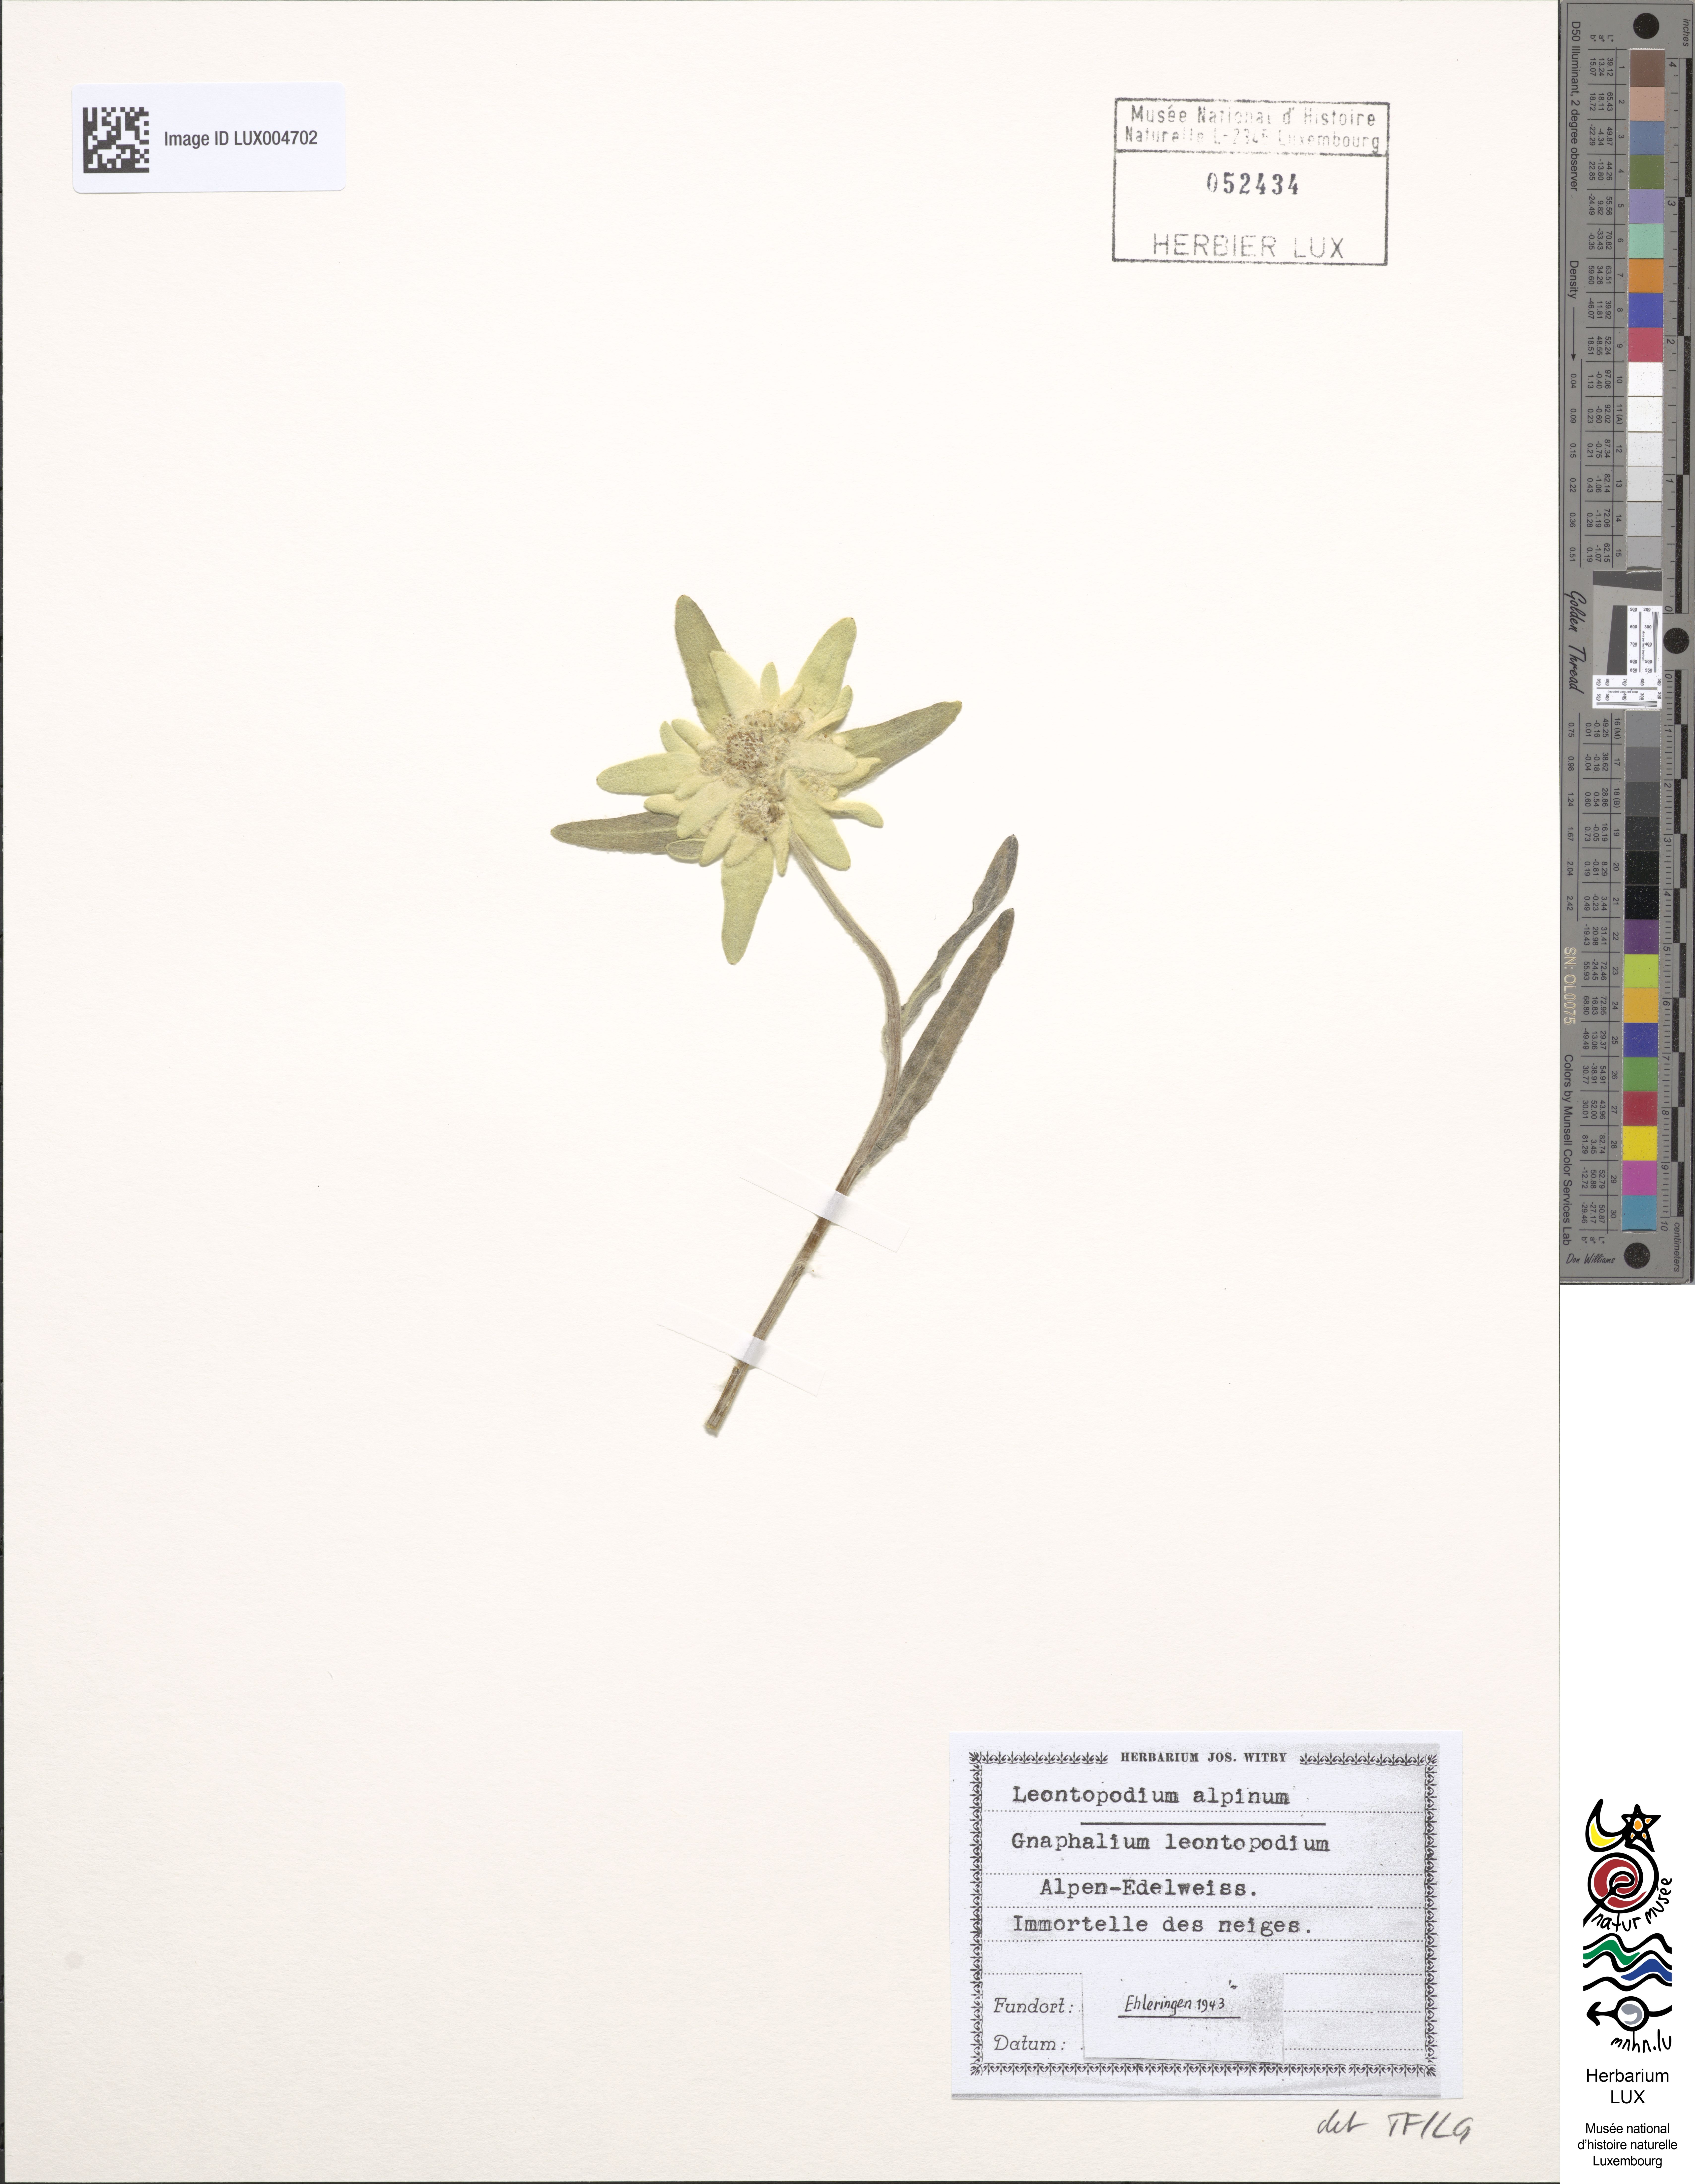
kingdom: Plantae
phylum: Tracheophyta
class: Magnoliopsida
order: Asterales
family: Asteraceae
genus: Leontopodium
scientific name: Leontopodium nivale
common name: Edelweiss
